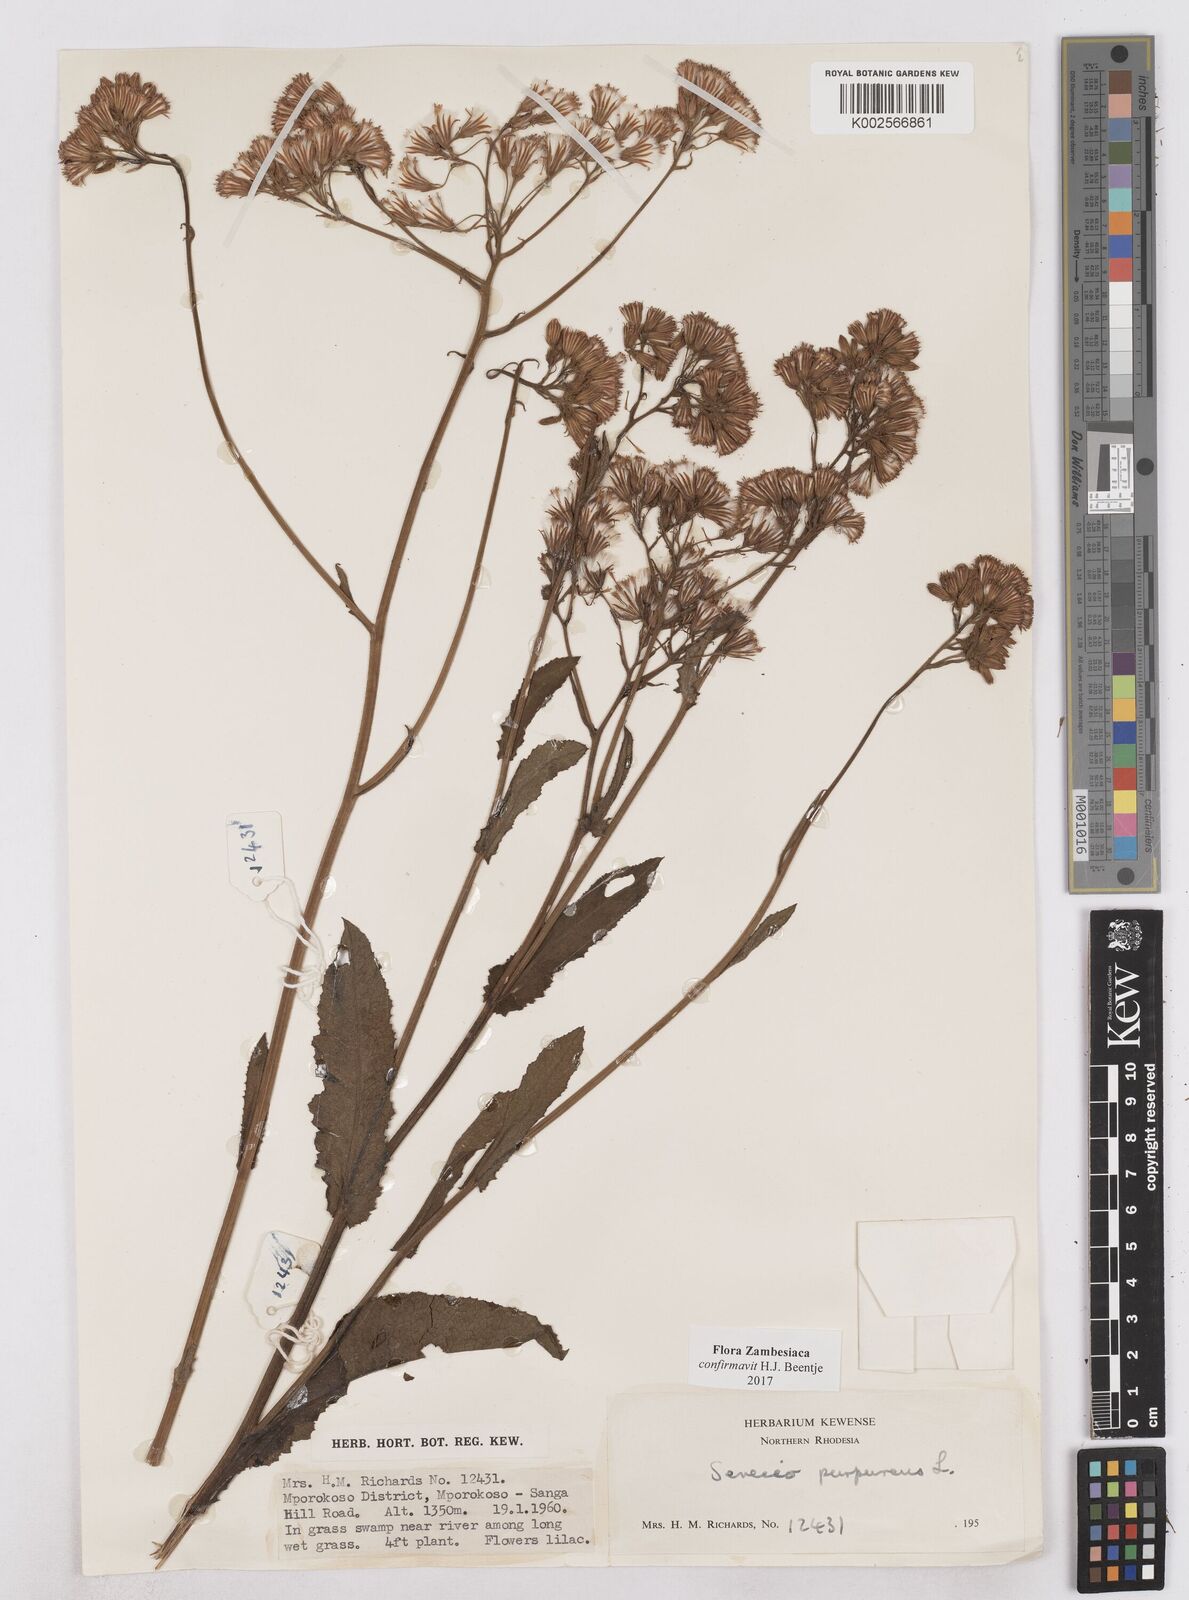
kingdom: Plantae
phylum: Tracheophyta
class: Magnoliopsida
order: Asterales
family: Asteraceae
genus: Senecio
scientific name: Senecio purpureus
